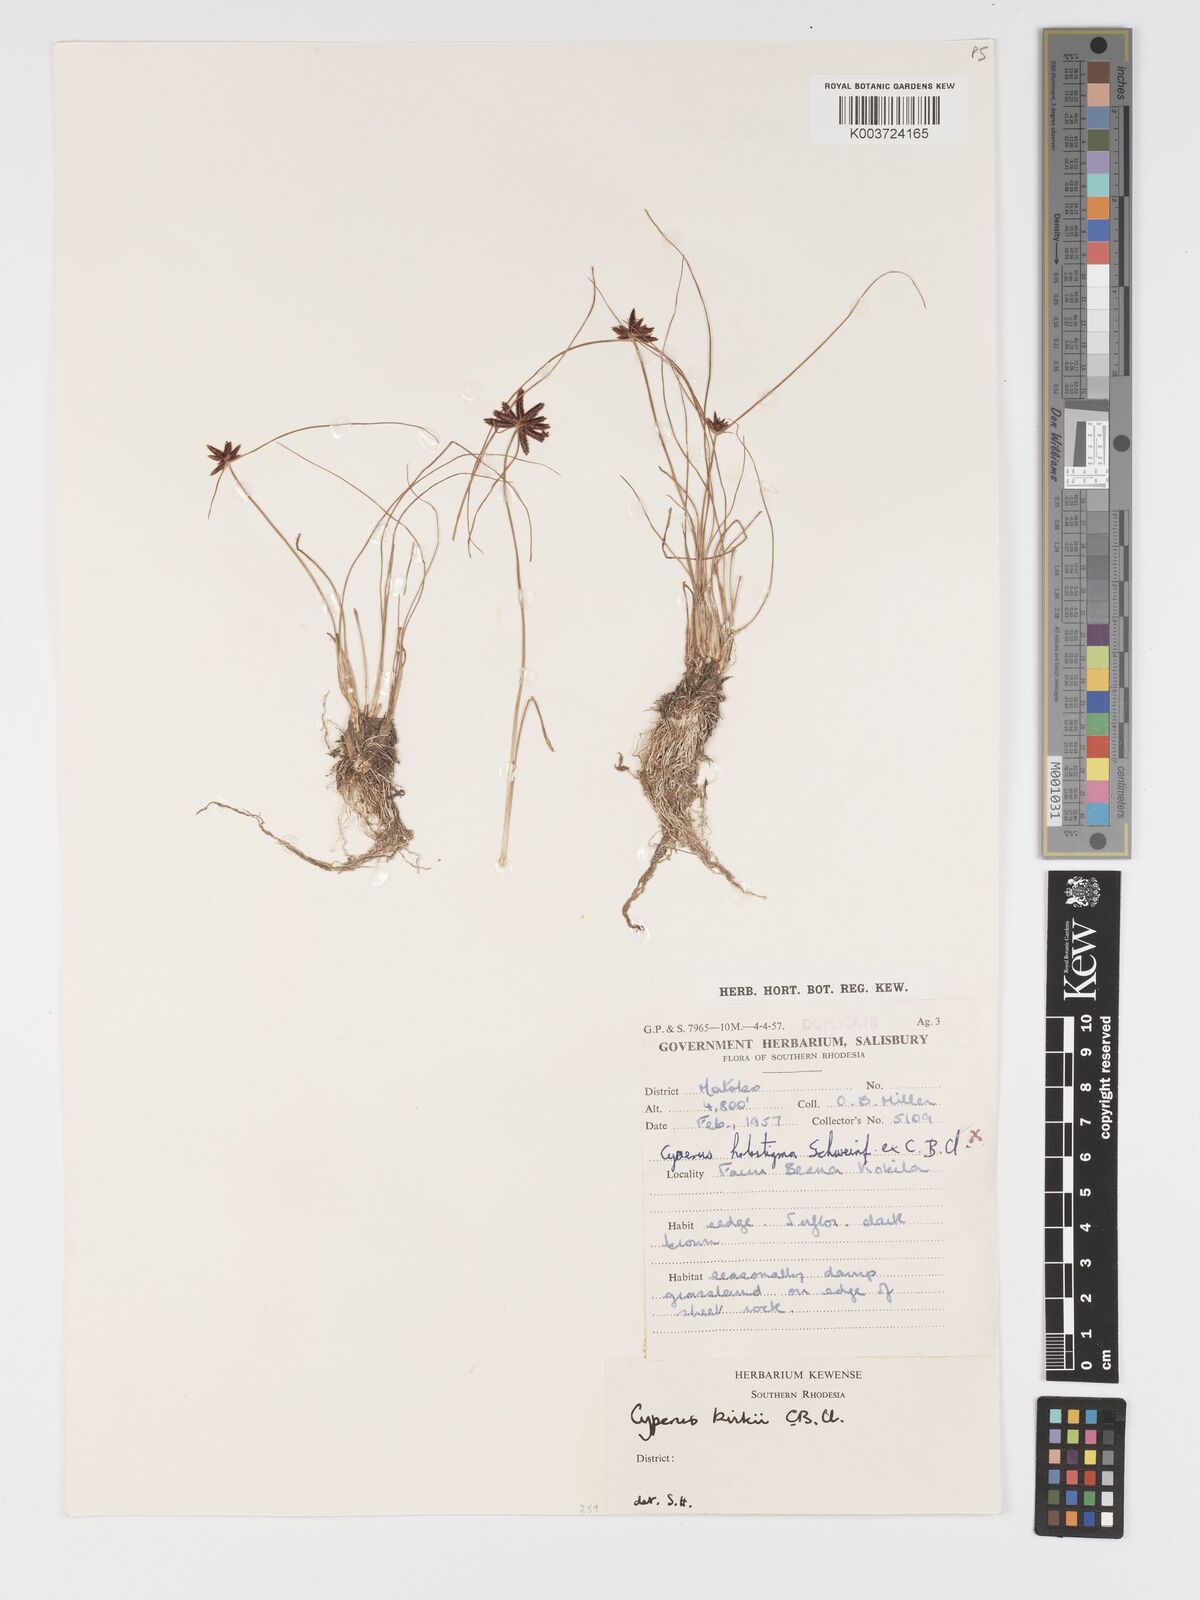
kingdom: Plantae
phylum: Tracheophyta
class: Liliopsida
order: Poales
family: Cyperaceae
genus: Cyperus
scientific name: Cyperus rupestris
